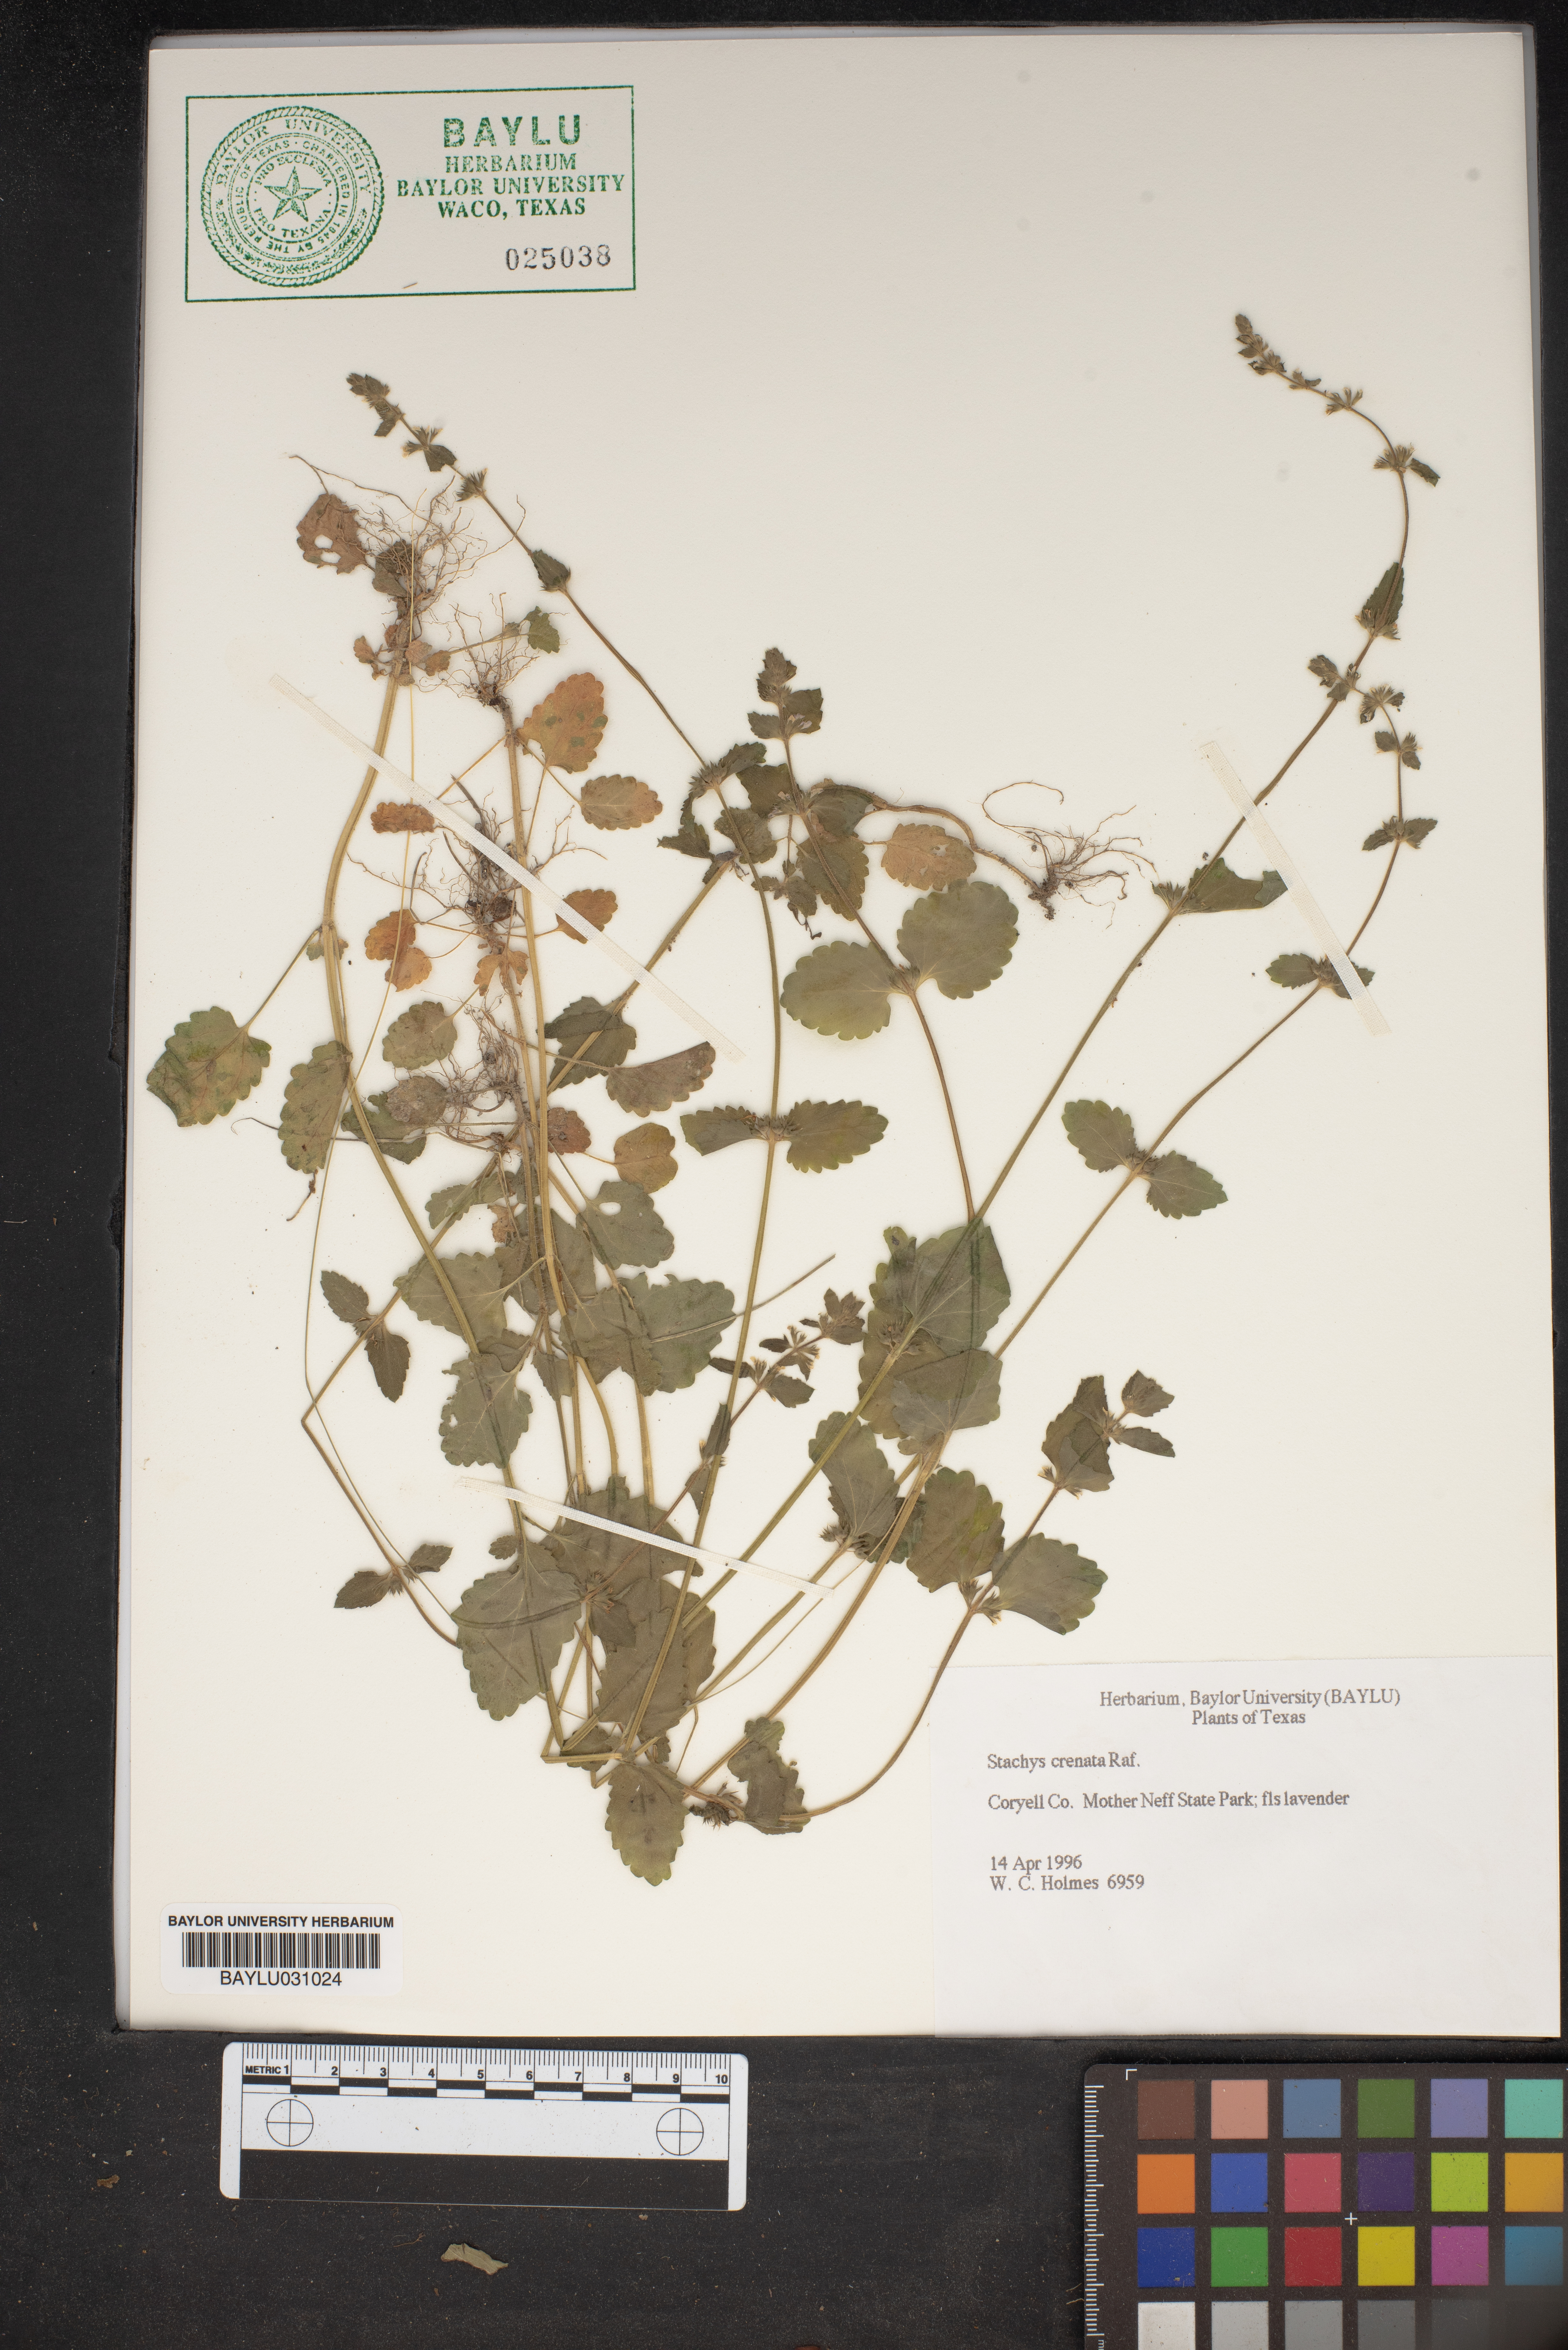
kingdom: Plantae
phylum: Tracheophyta
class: Magnoliopsida
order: Lamiales
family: Lamiaceae
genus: Stachys
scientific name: Stachys agraria
